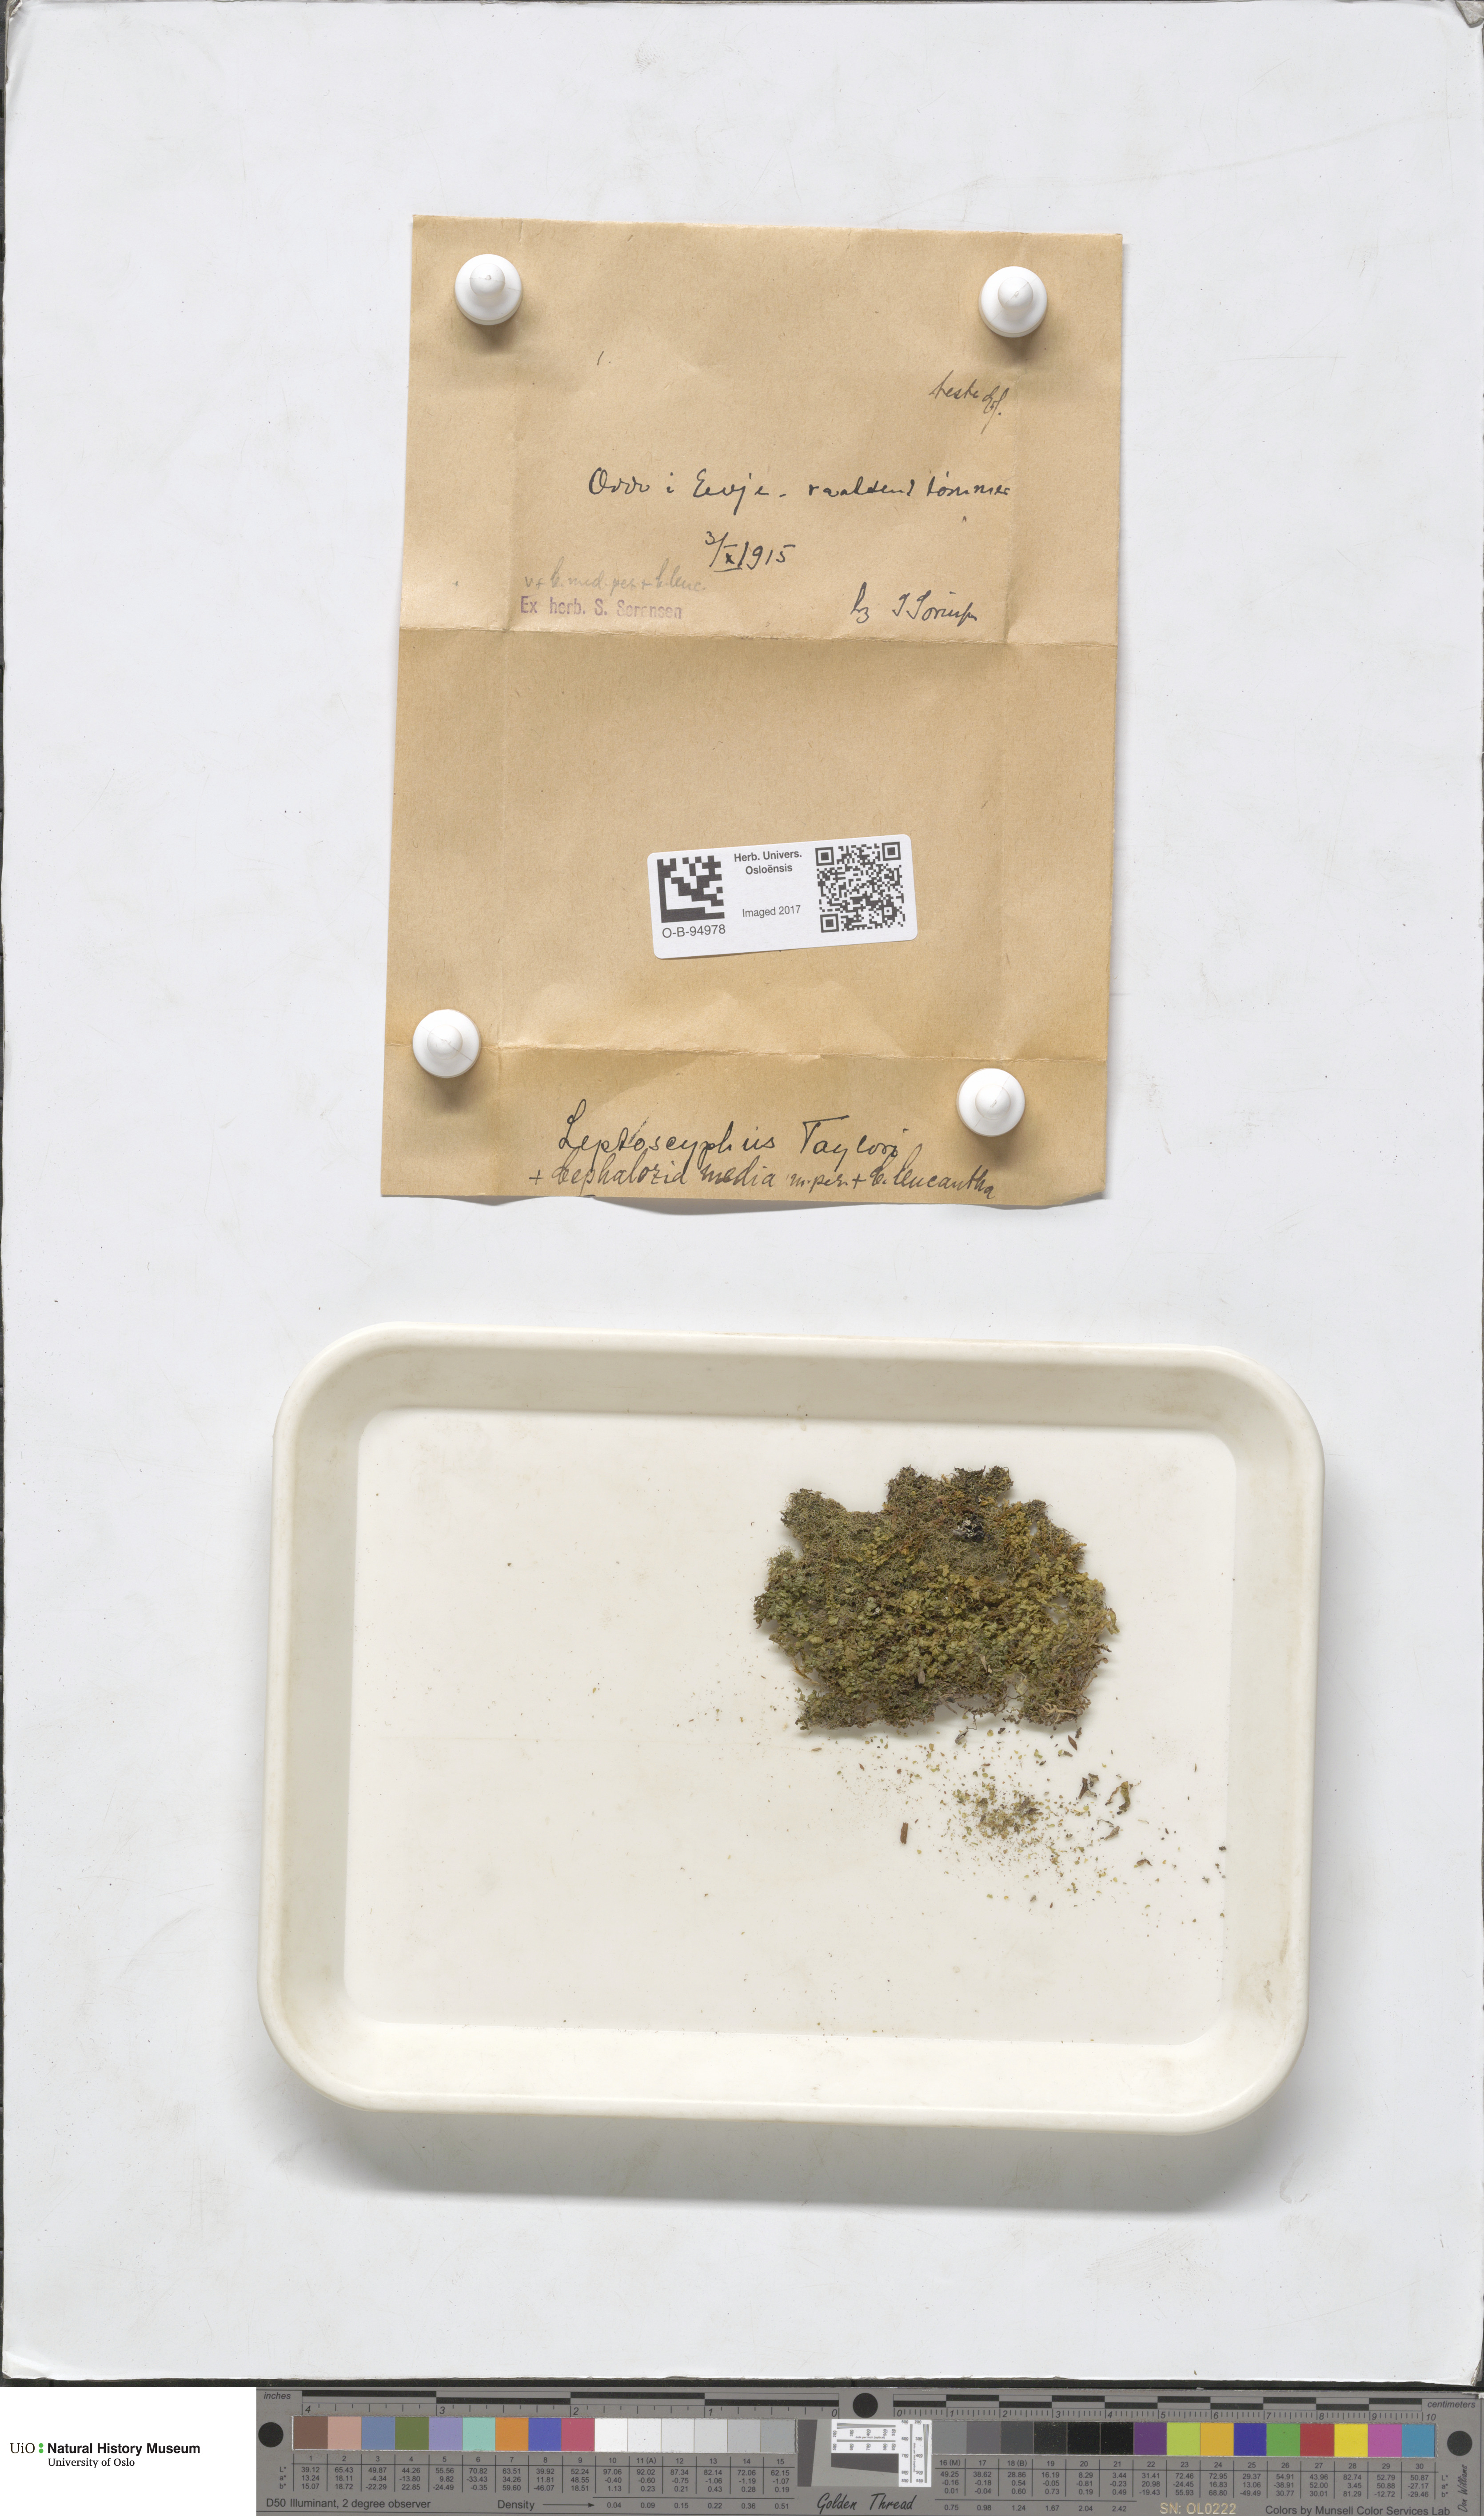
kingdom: Plantae
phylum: Marchantiophyta
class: Jungermanniopsida
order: Jungermanniales
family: Myliaceae
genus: Mylia
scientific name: Mylia taylorii
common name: Taylor s flapwort
